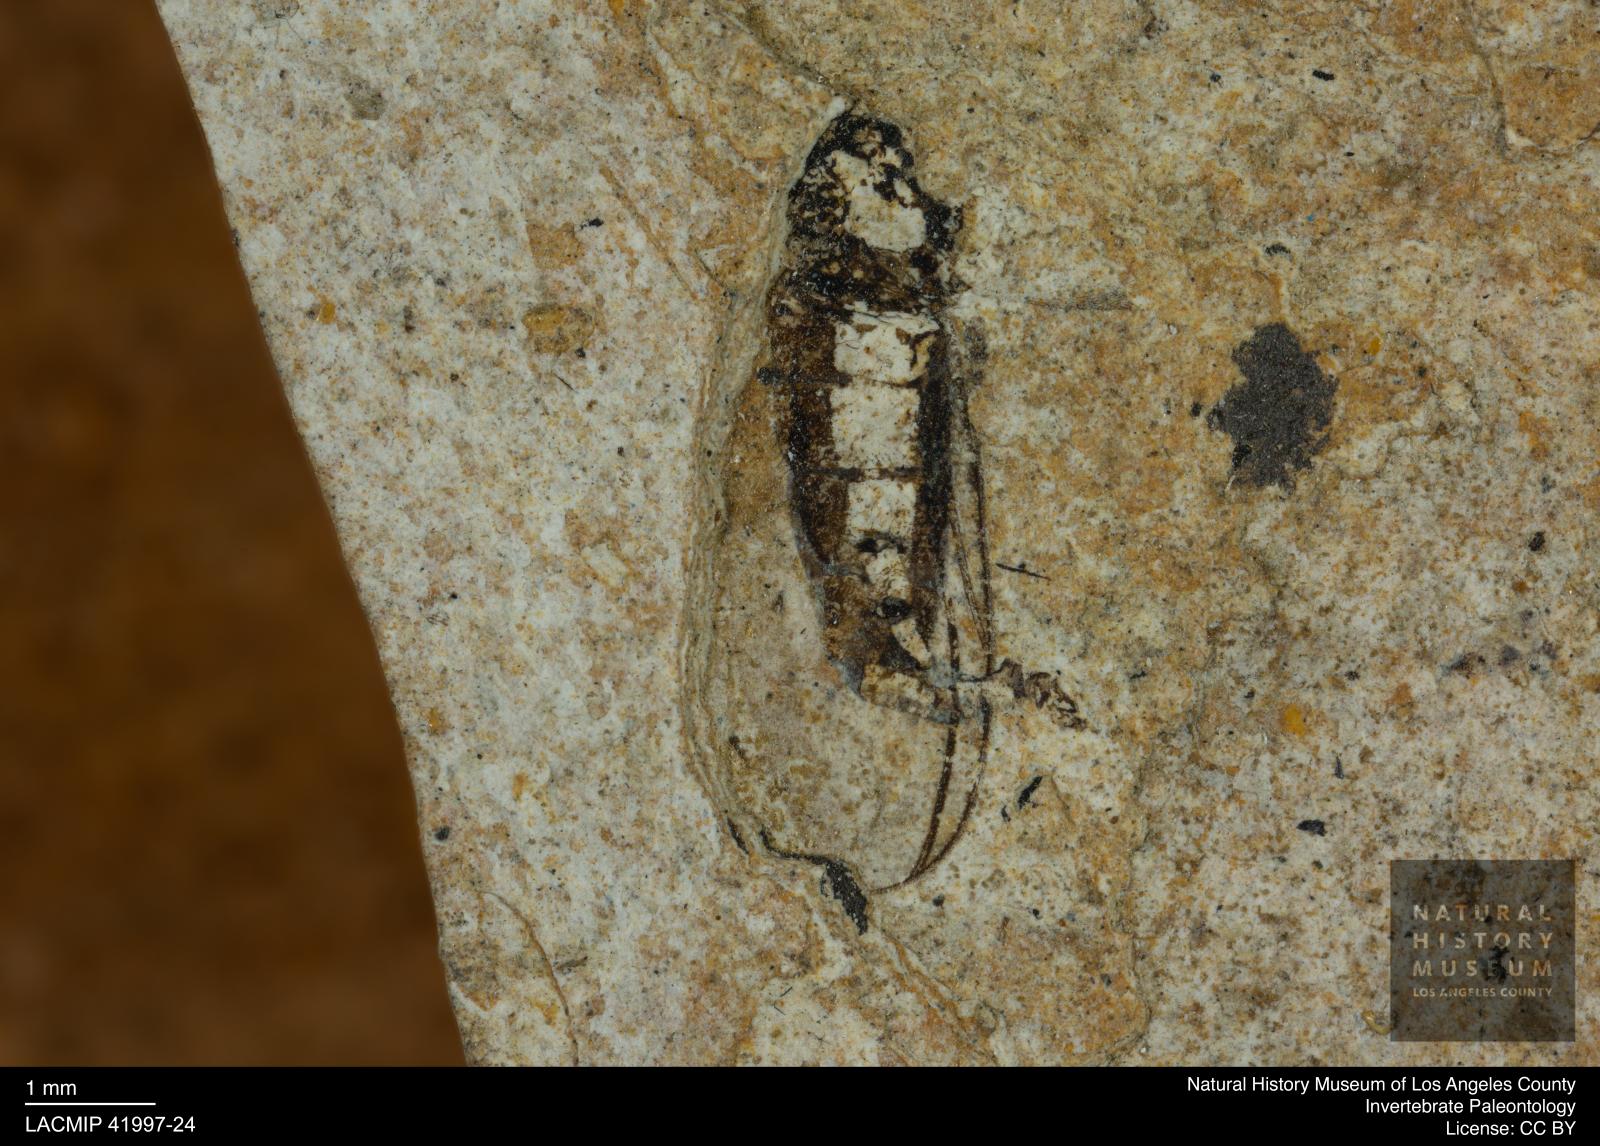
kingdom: Animalia
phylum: Arthropoda
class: Insecta
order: Hemiptera
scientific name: Hemiptera
